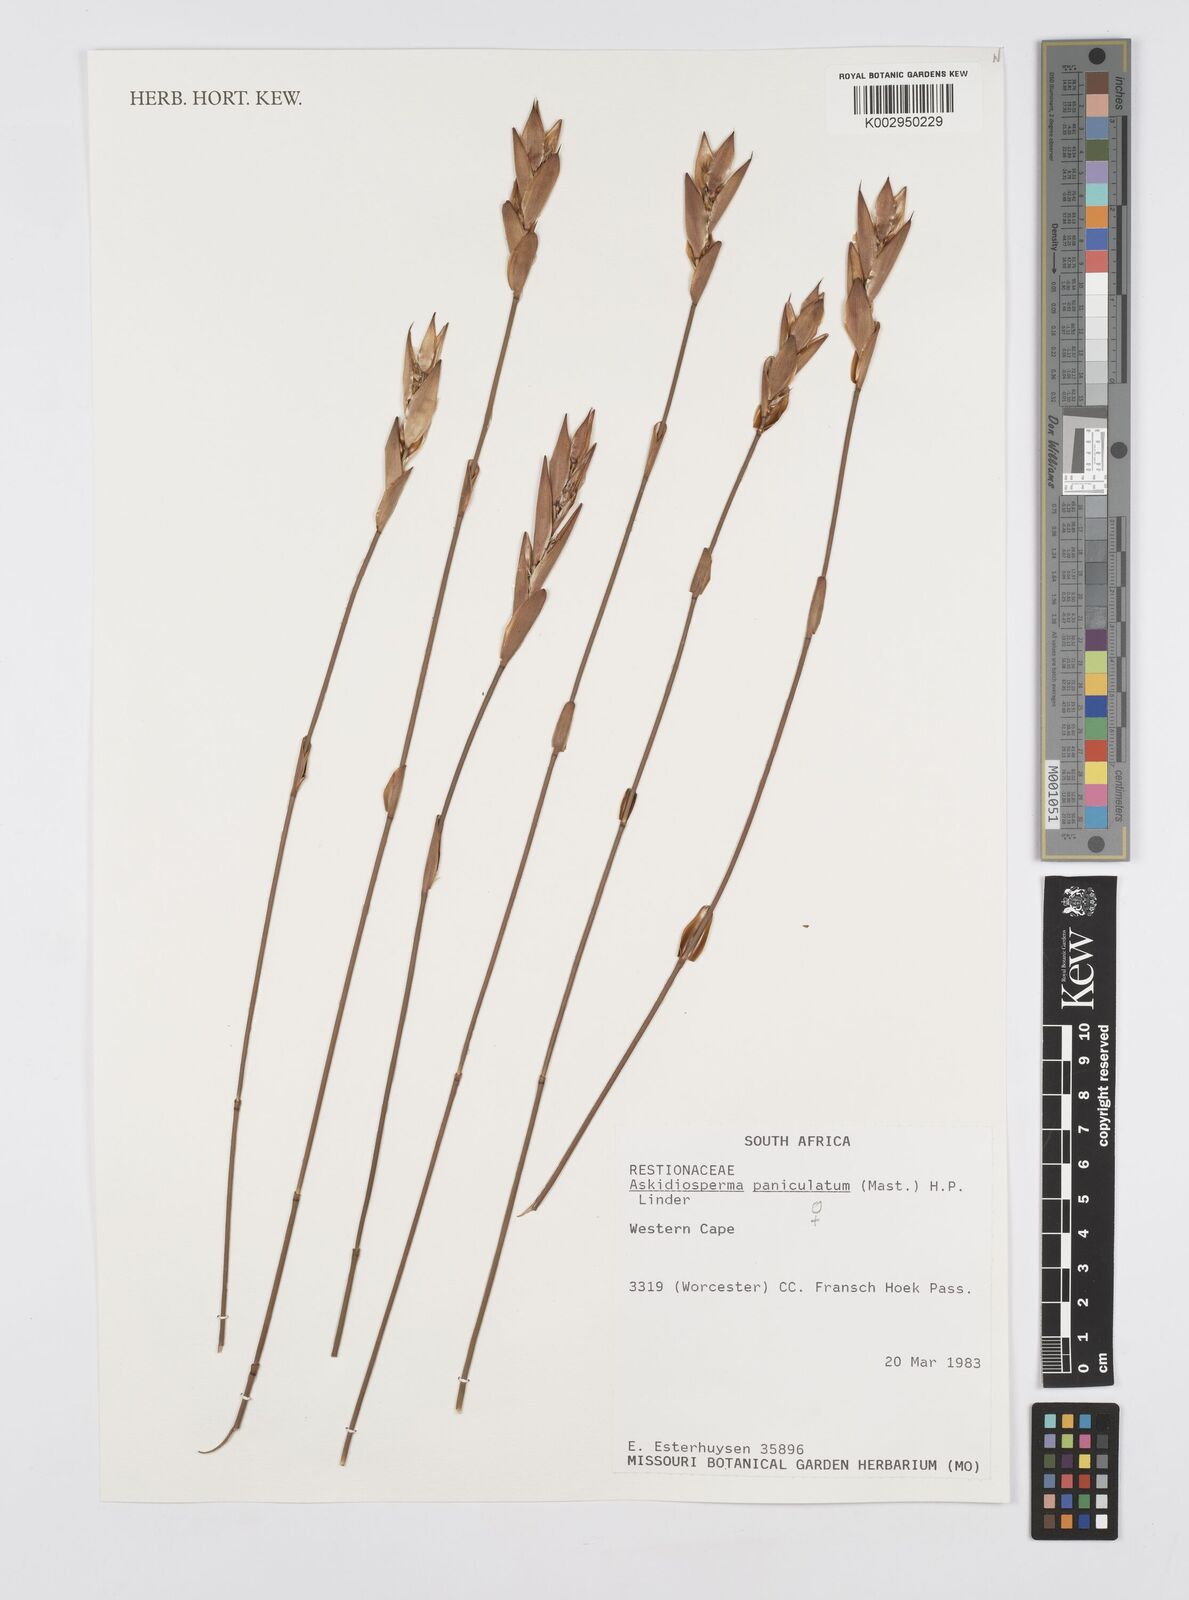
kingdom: Plantae
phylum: Tracheophyta
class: Liliopsida
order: Poales
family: Restionaceae
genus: Askidiosperma
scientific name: Askidiosperma paniculatum
